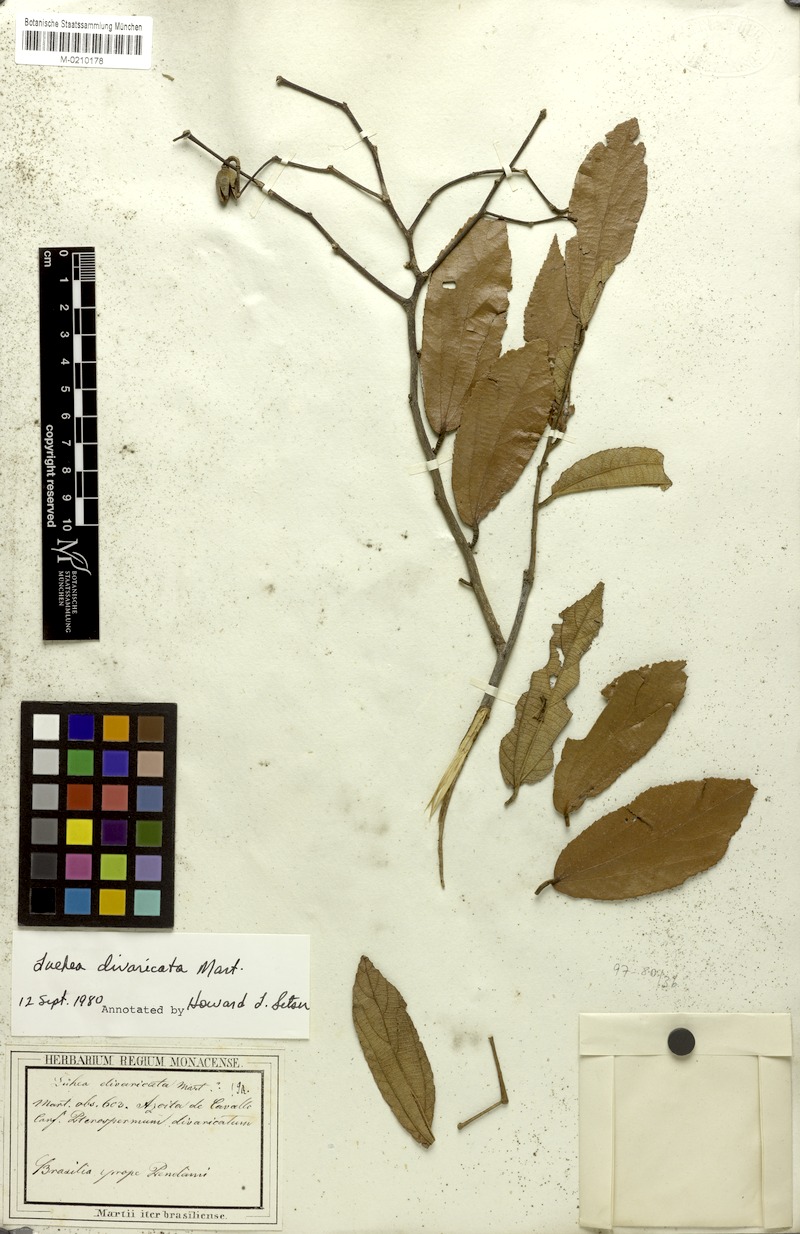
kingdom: Plantae
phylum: Tracheophyta
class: Magnoliopsida
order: Malvales
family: Malvaceae
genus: Luehea
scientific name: Luehea divaricata
